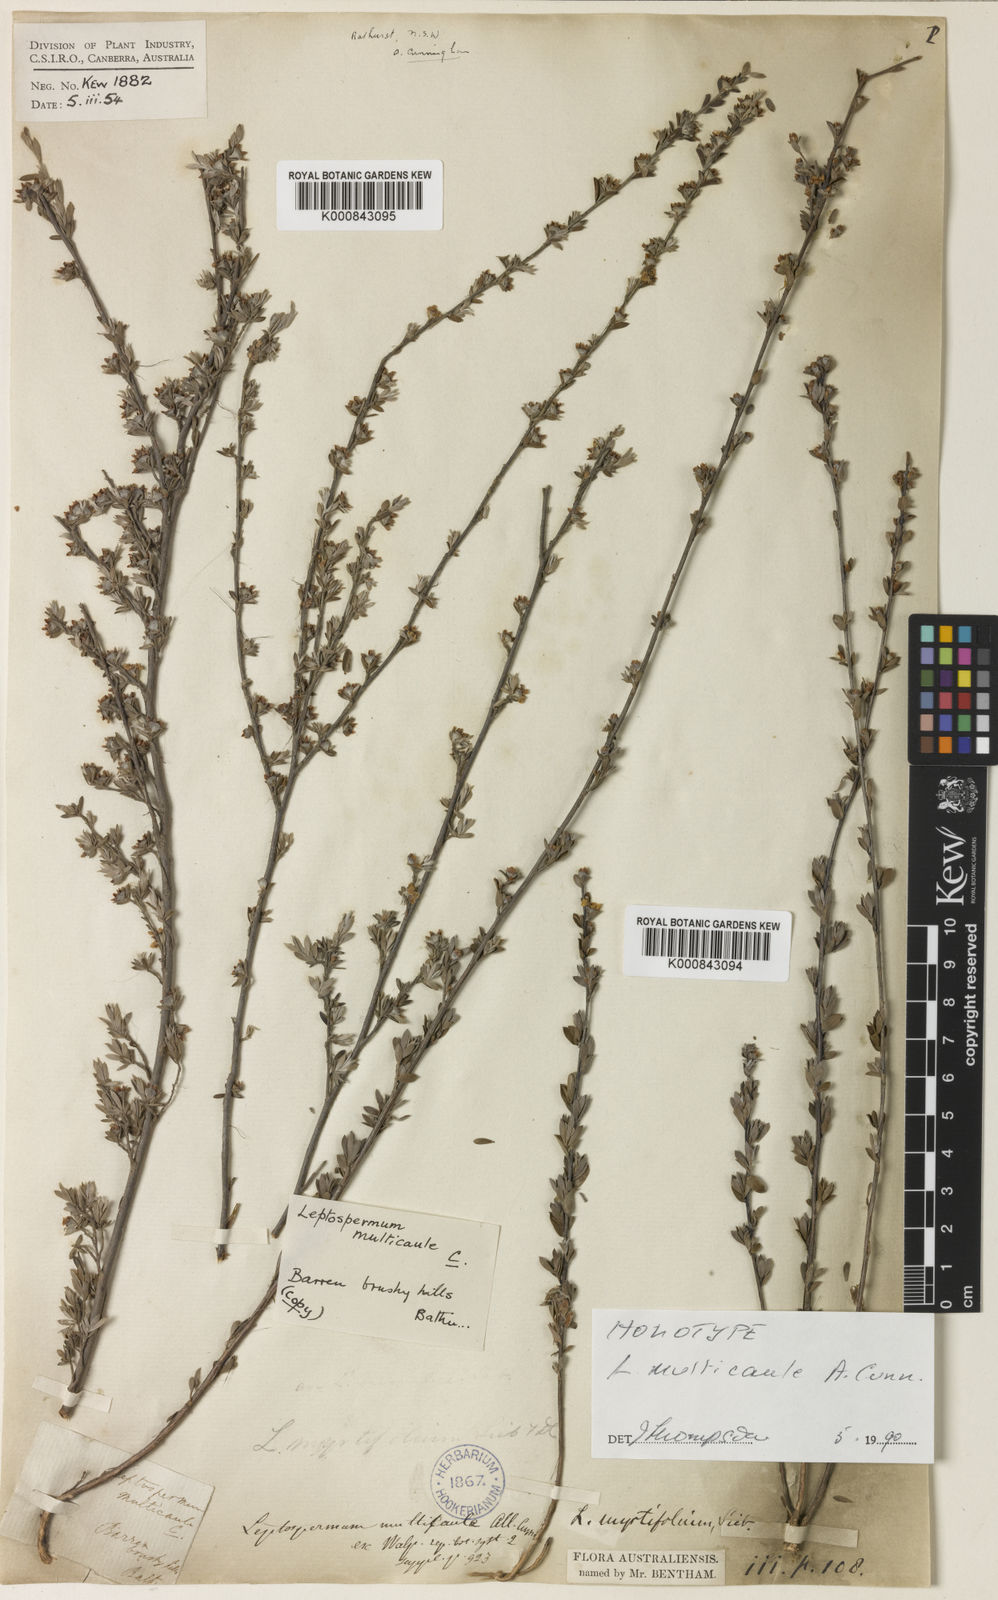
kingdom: Plantae
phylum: Tracheophyta
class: Magnoliopsida
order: Myrtales
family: Myrtaceae
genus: Leptospermum
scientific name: Leptospermum myrtifolium
